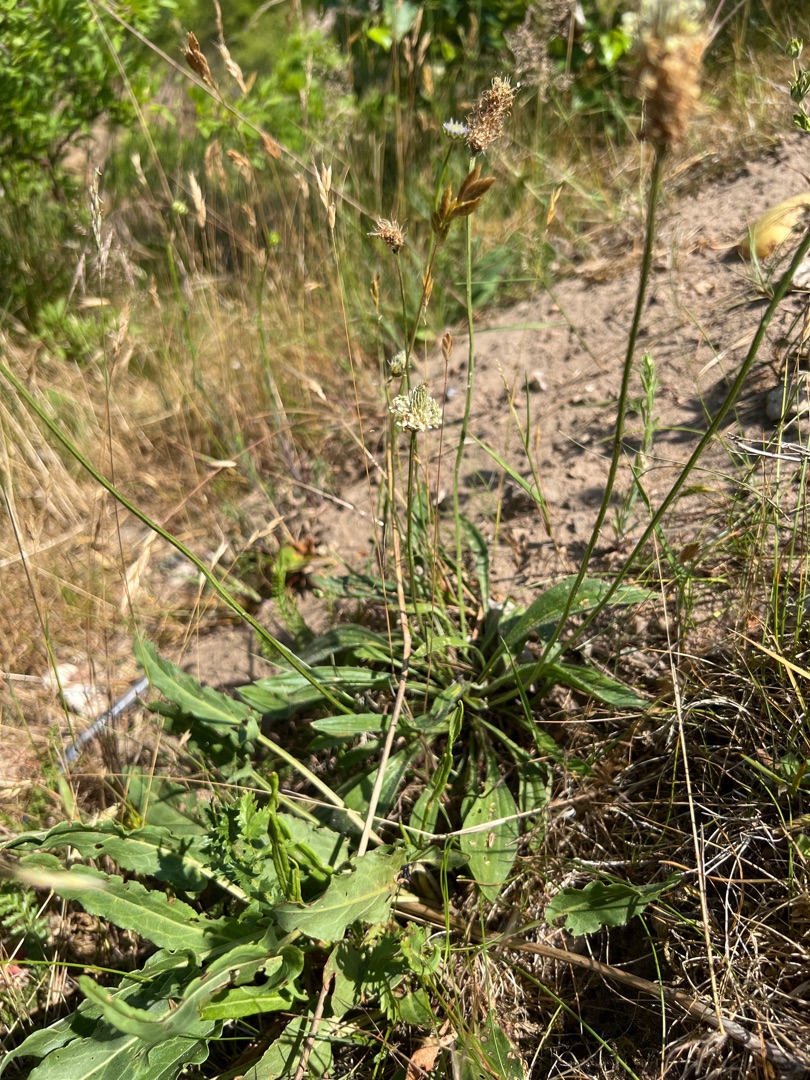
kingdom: Plantae
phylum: Tracheophyta
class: Magnoliopsida
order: Lamiales
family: Plantaginaceae
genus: Plantago
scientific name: Plantago lanceolata
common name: Lancet-vejbred
